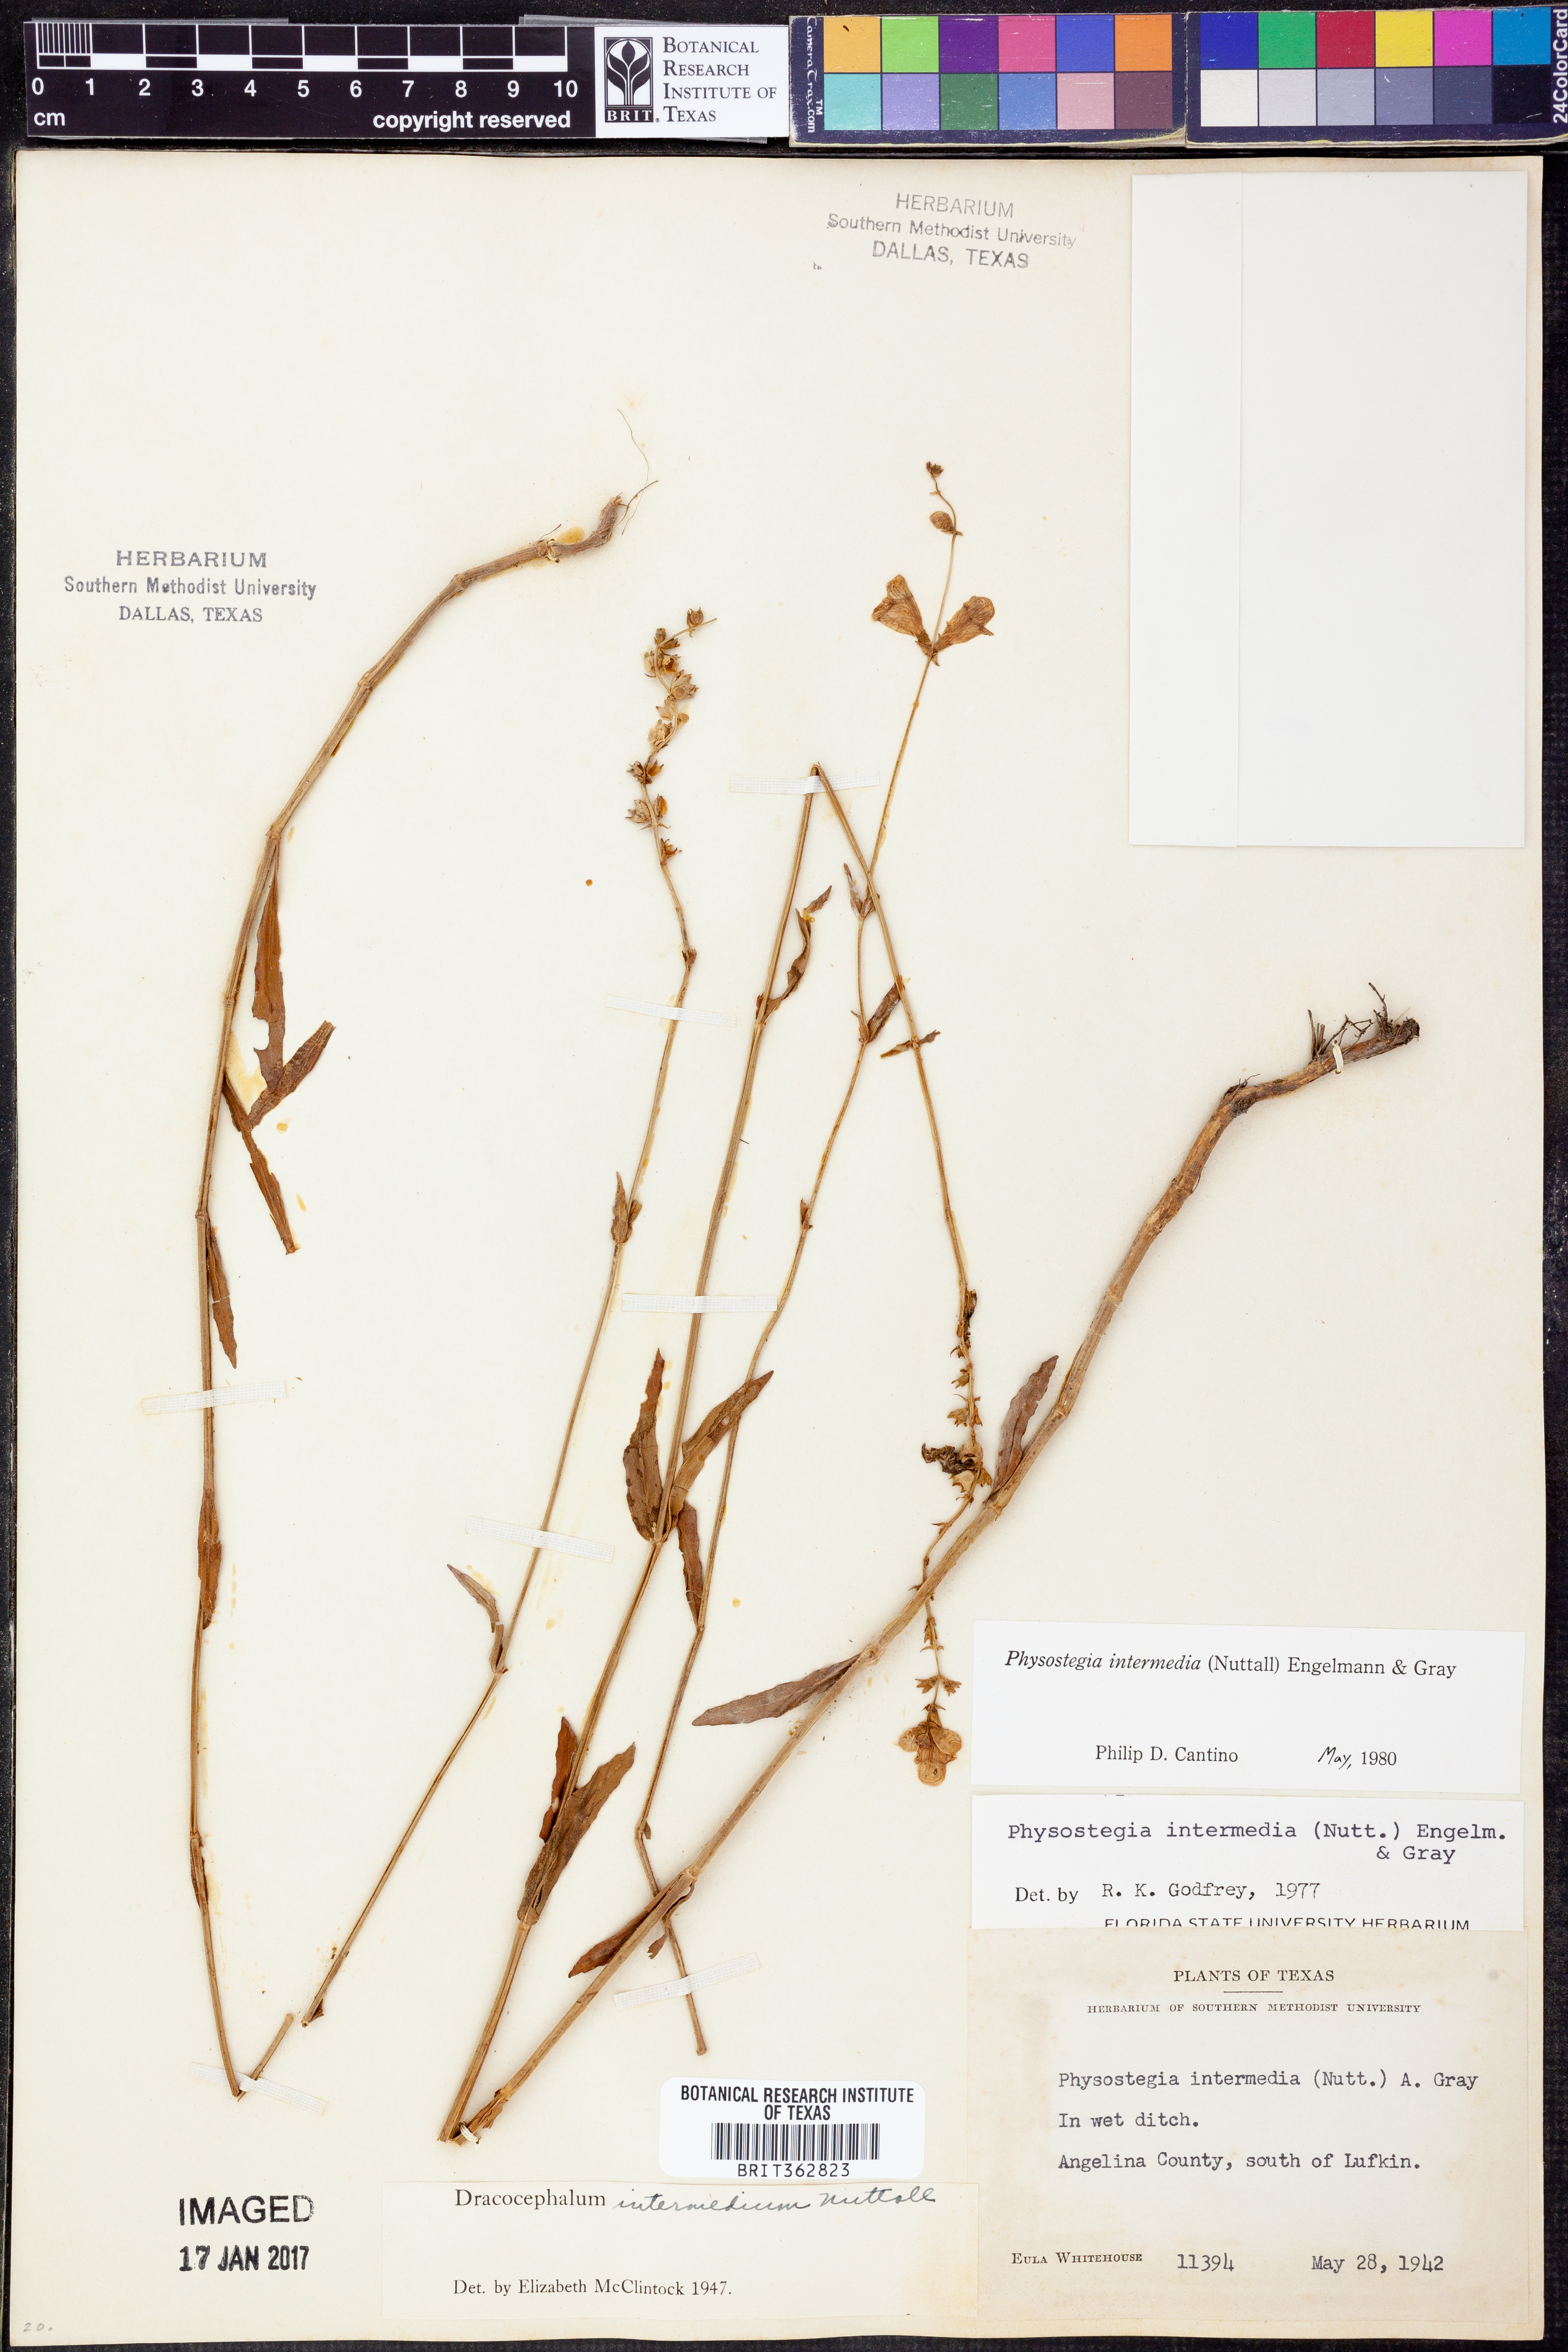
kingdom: Plantae
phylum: Tracheophyta
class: Magnoliopsida
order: Lamiales
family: Lamiaceae
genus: Physostegia
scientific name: Physostegia intermedia
